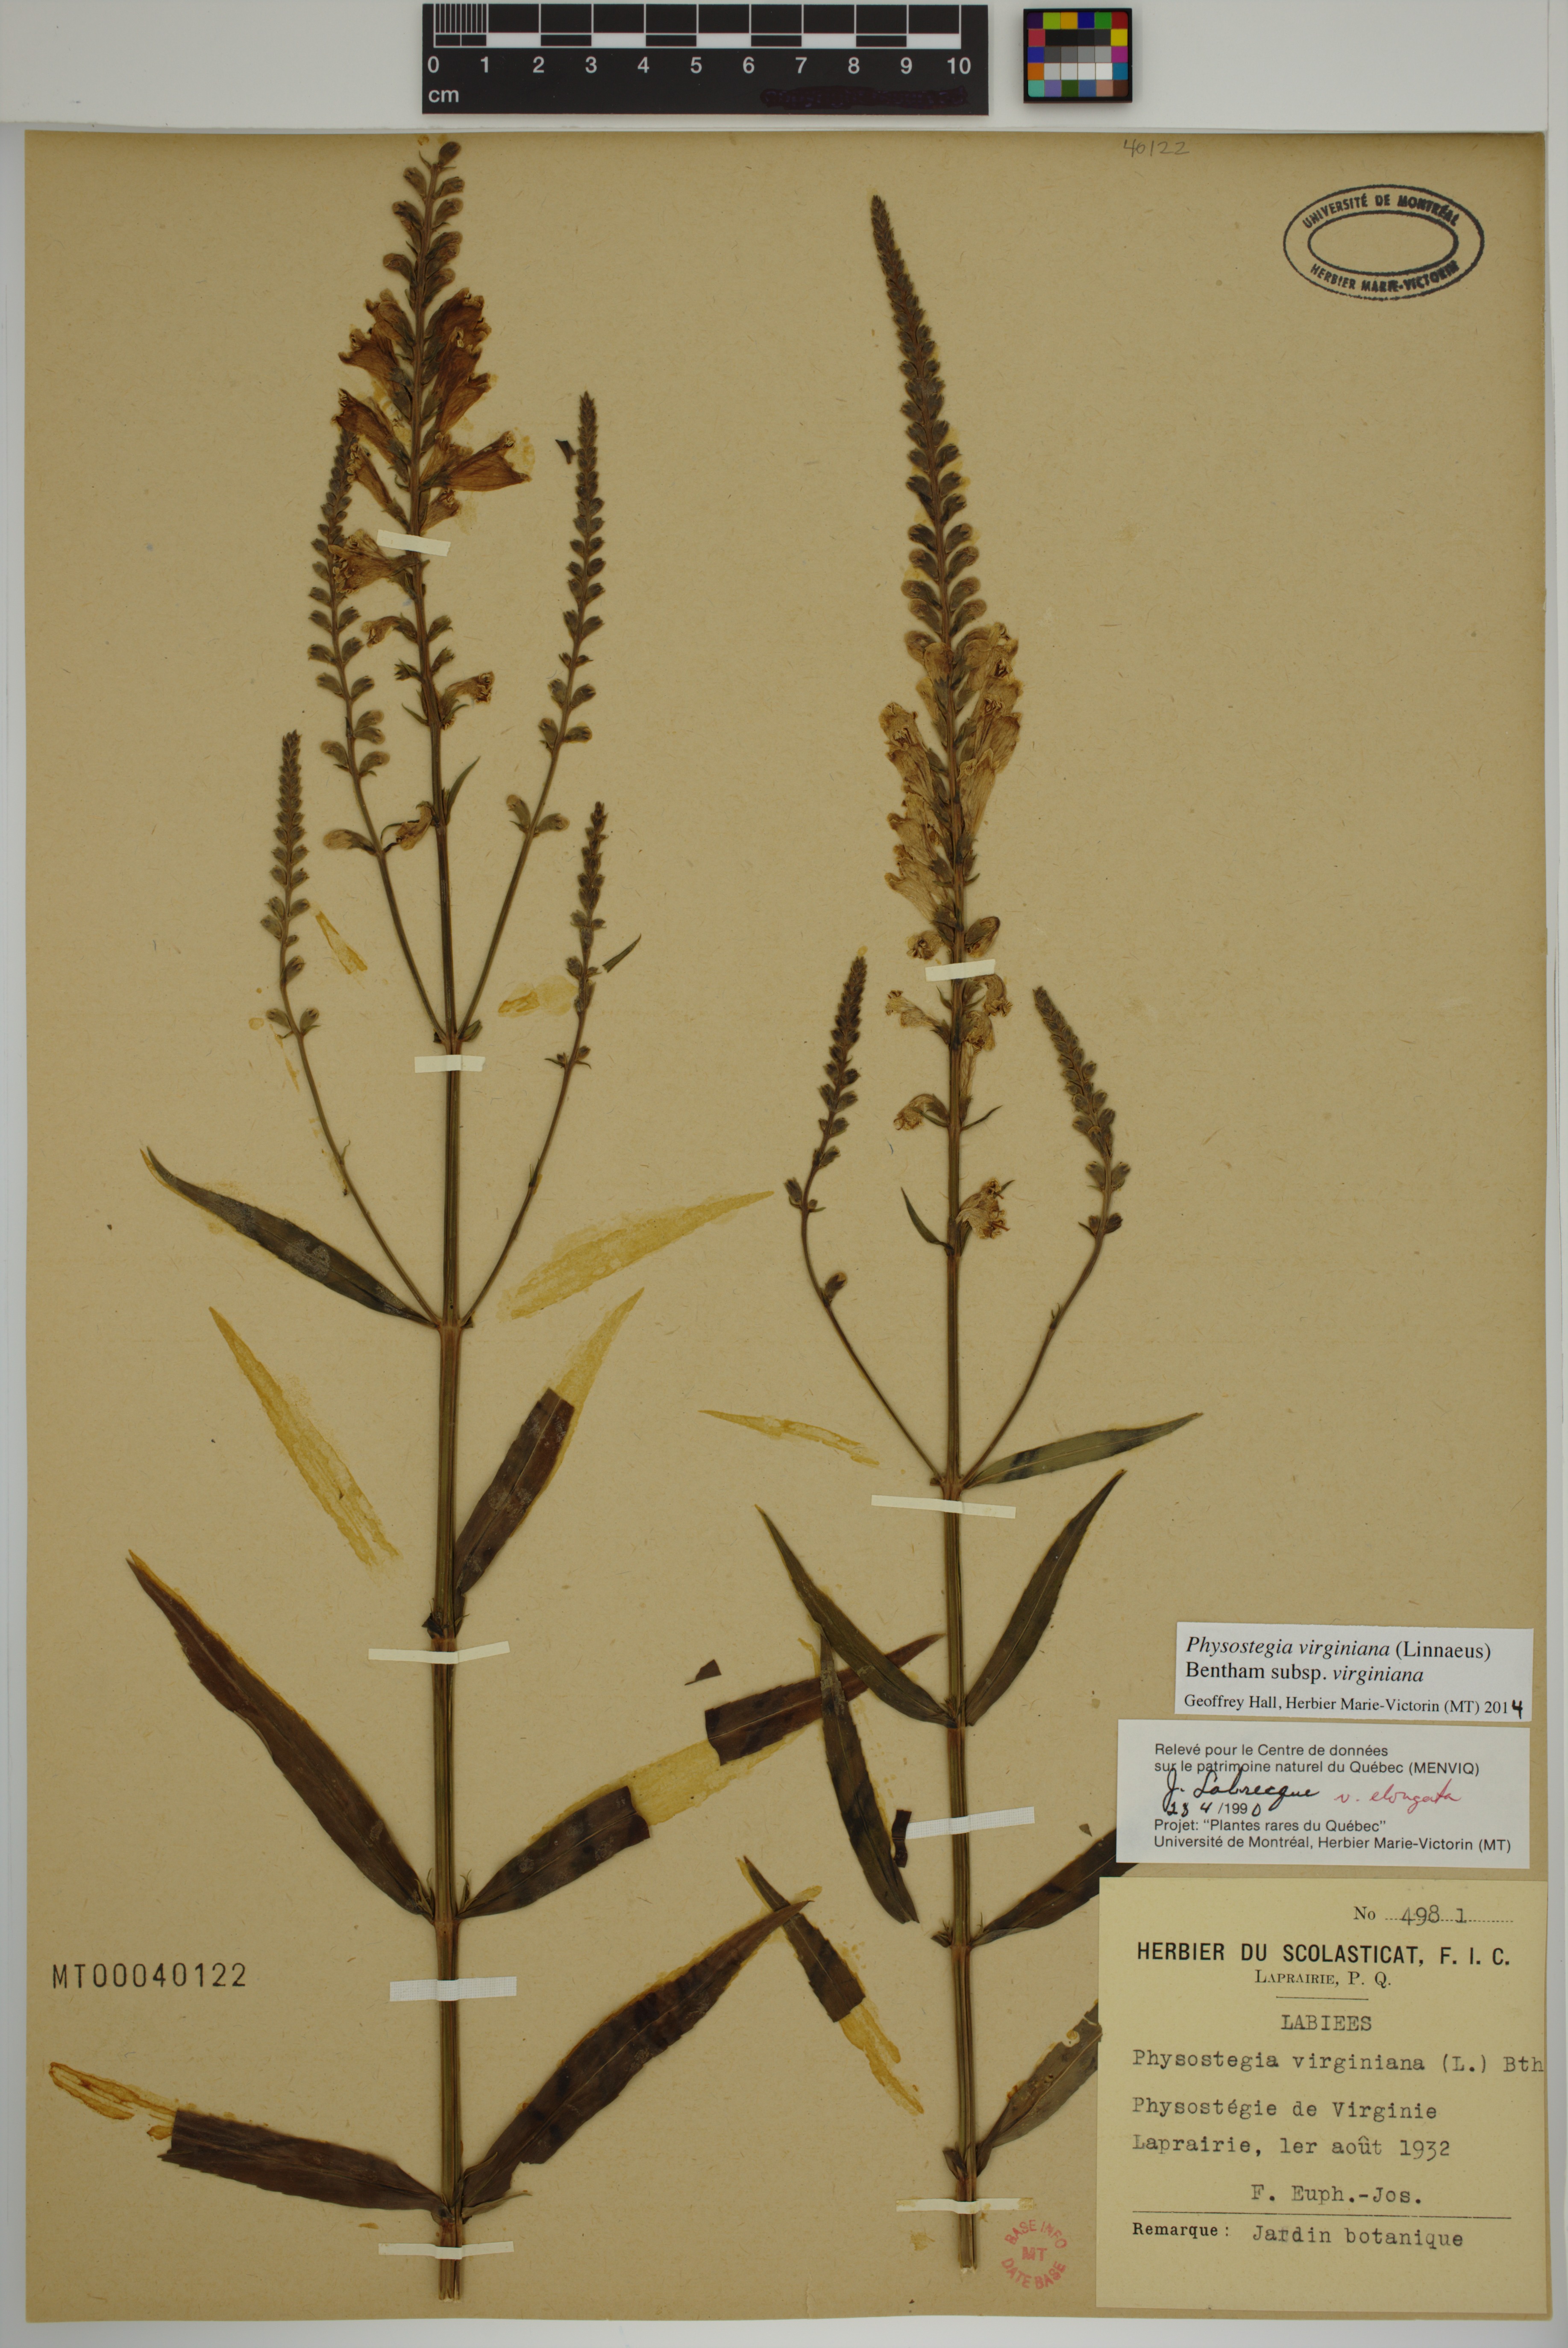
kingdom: Plantae
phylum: Tracheophyta
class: Magnoliopsida
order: Lamiales
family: Lamiaceae
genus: Physostegia
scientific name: Physostegia virginiana
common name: Obedient-plant
